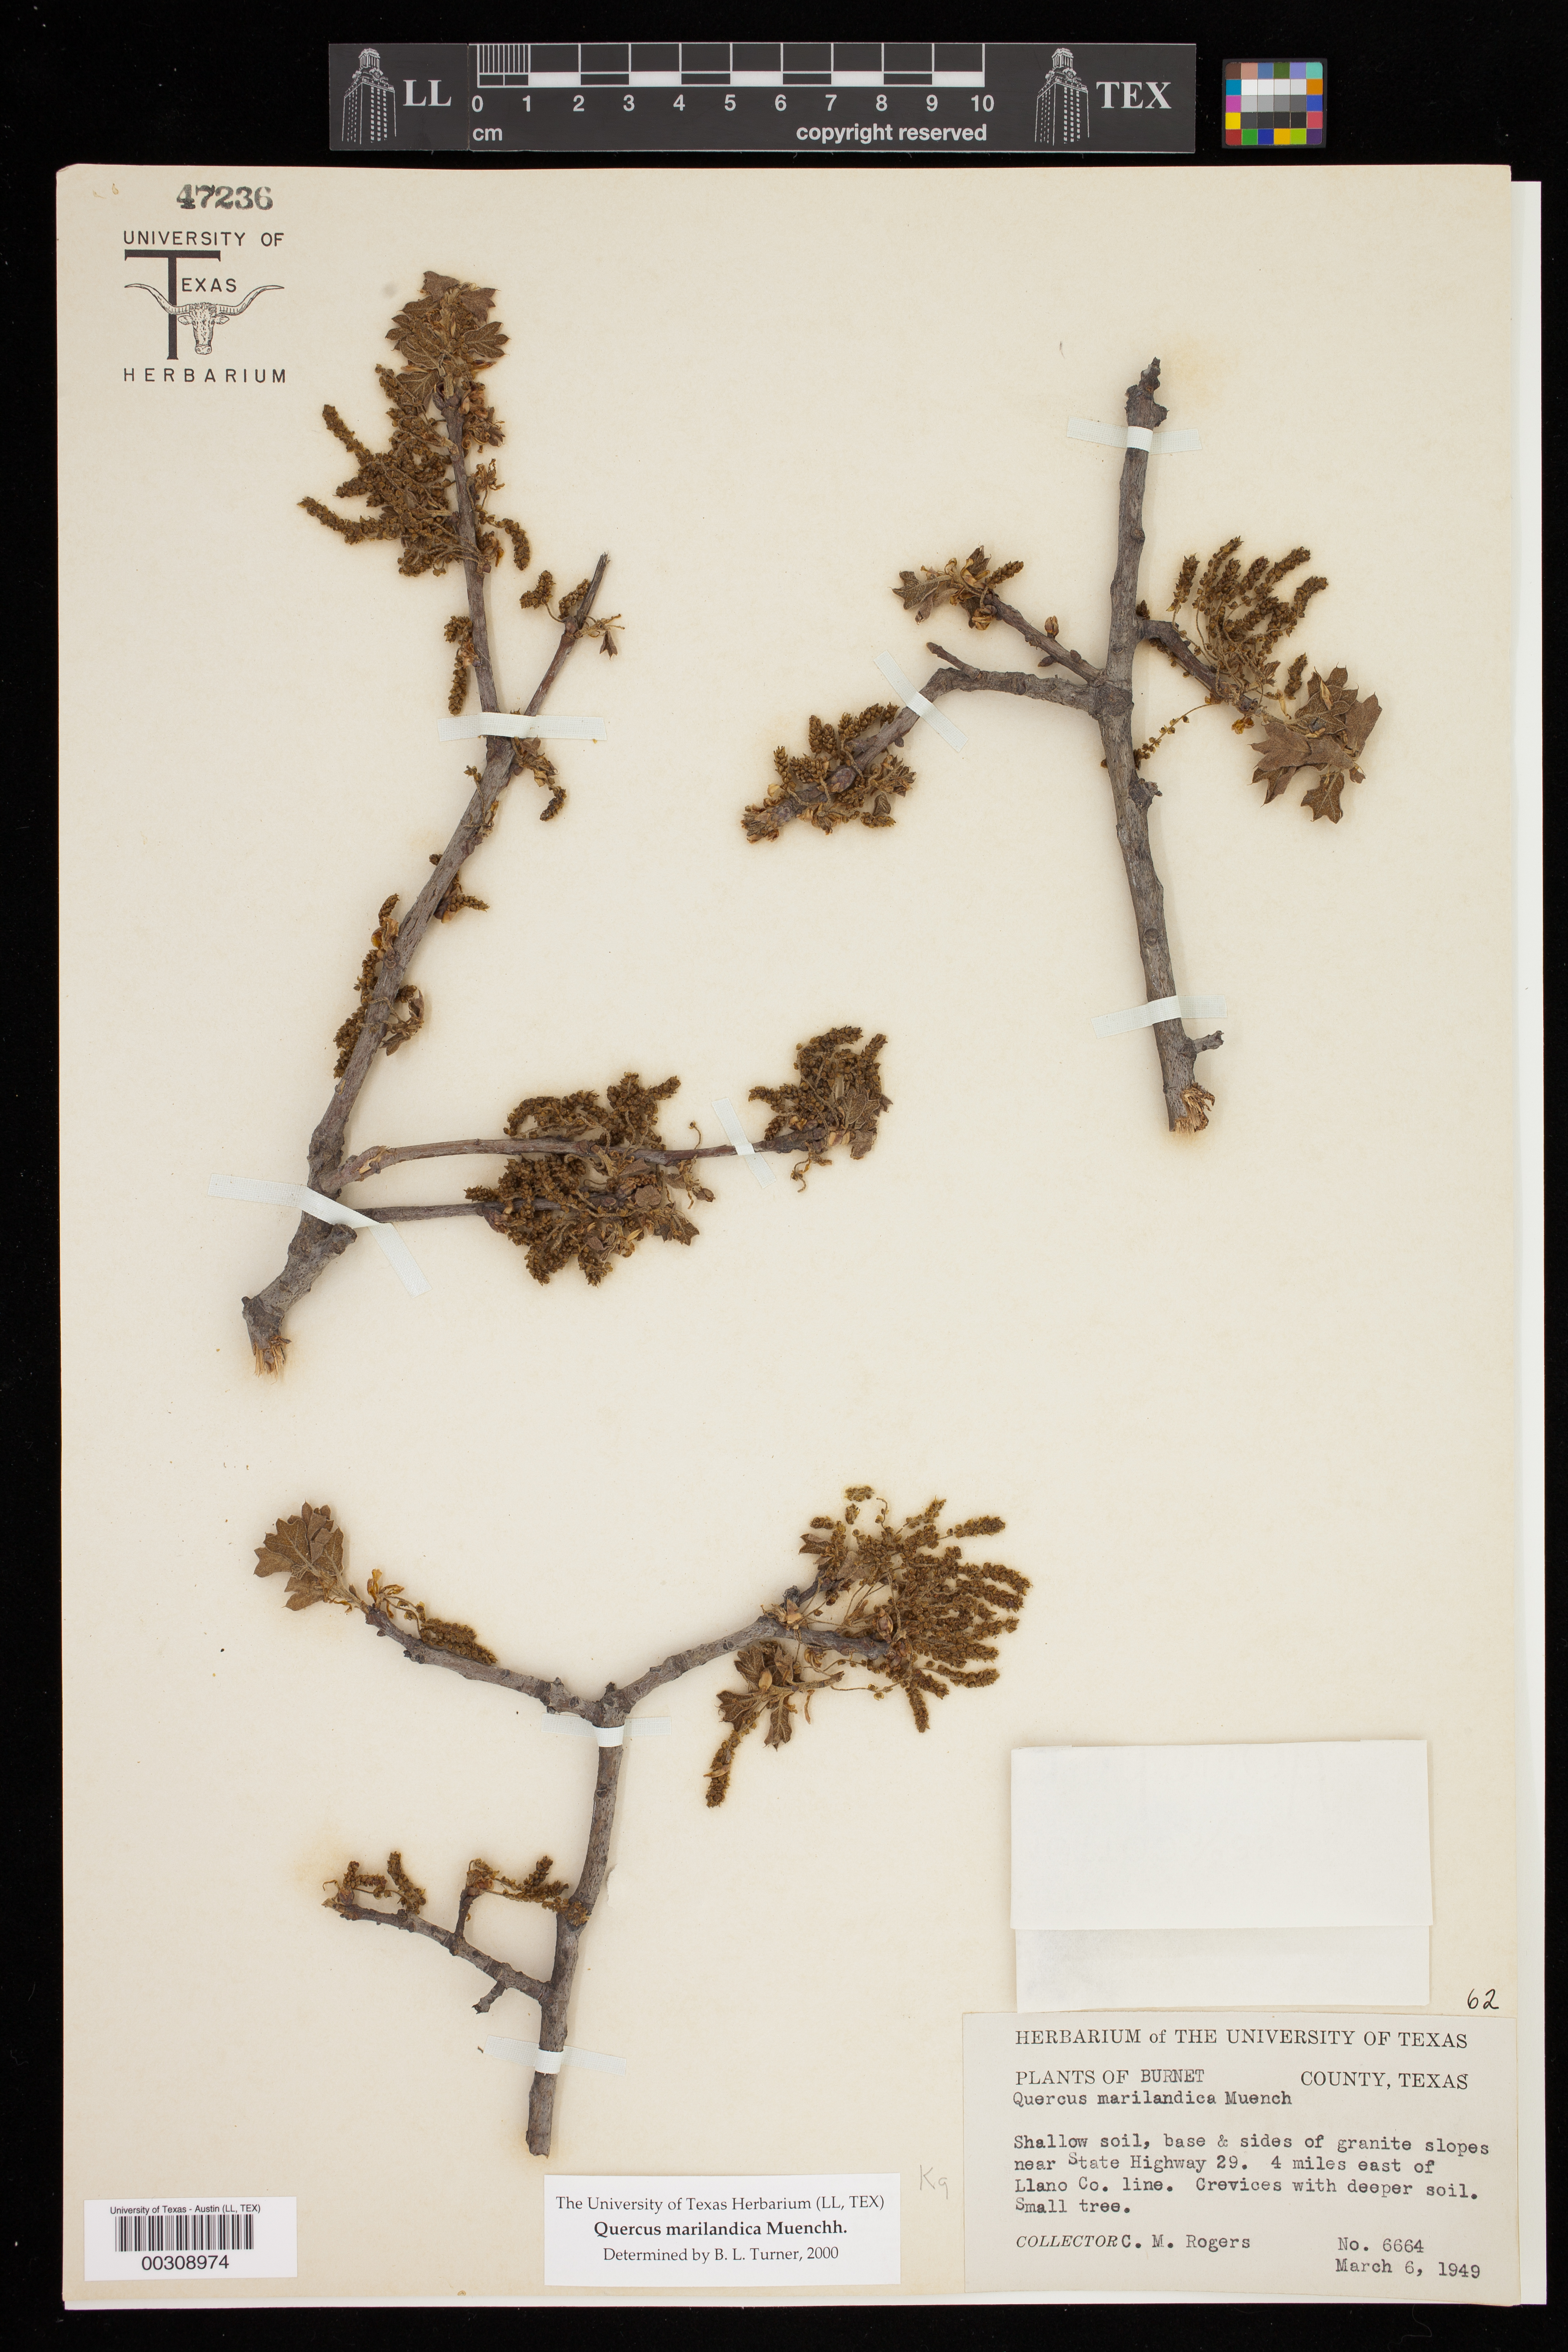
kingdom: Plantae
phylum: Tracheophyta
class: Magnoliopsida
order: Fagales
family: Fagaceae
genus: Quercus
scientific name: Quercus marilandica
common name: Blackjack oak
